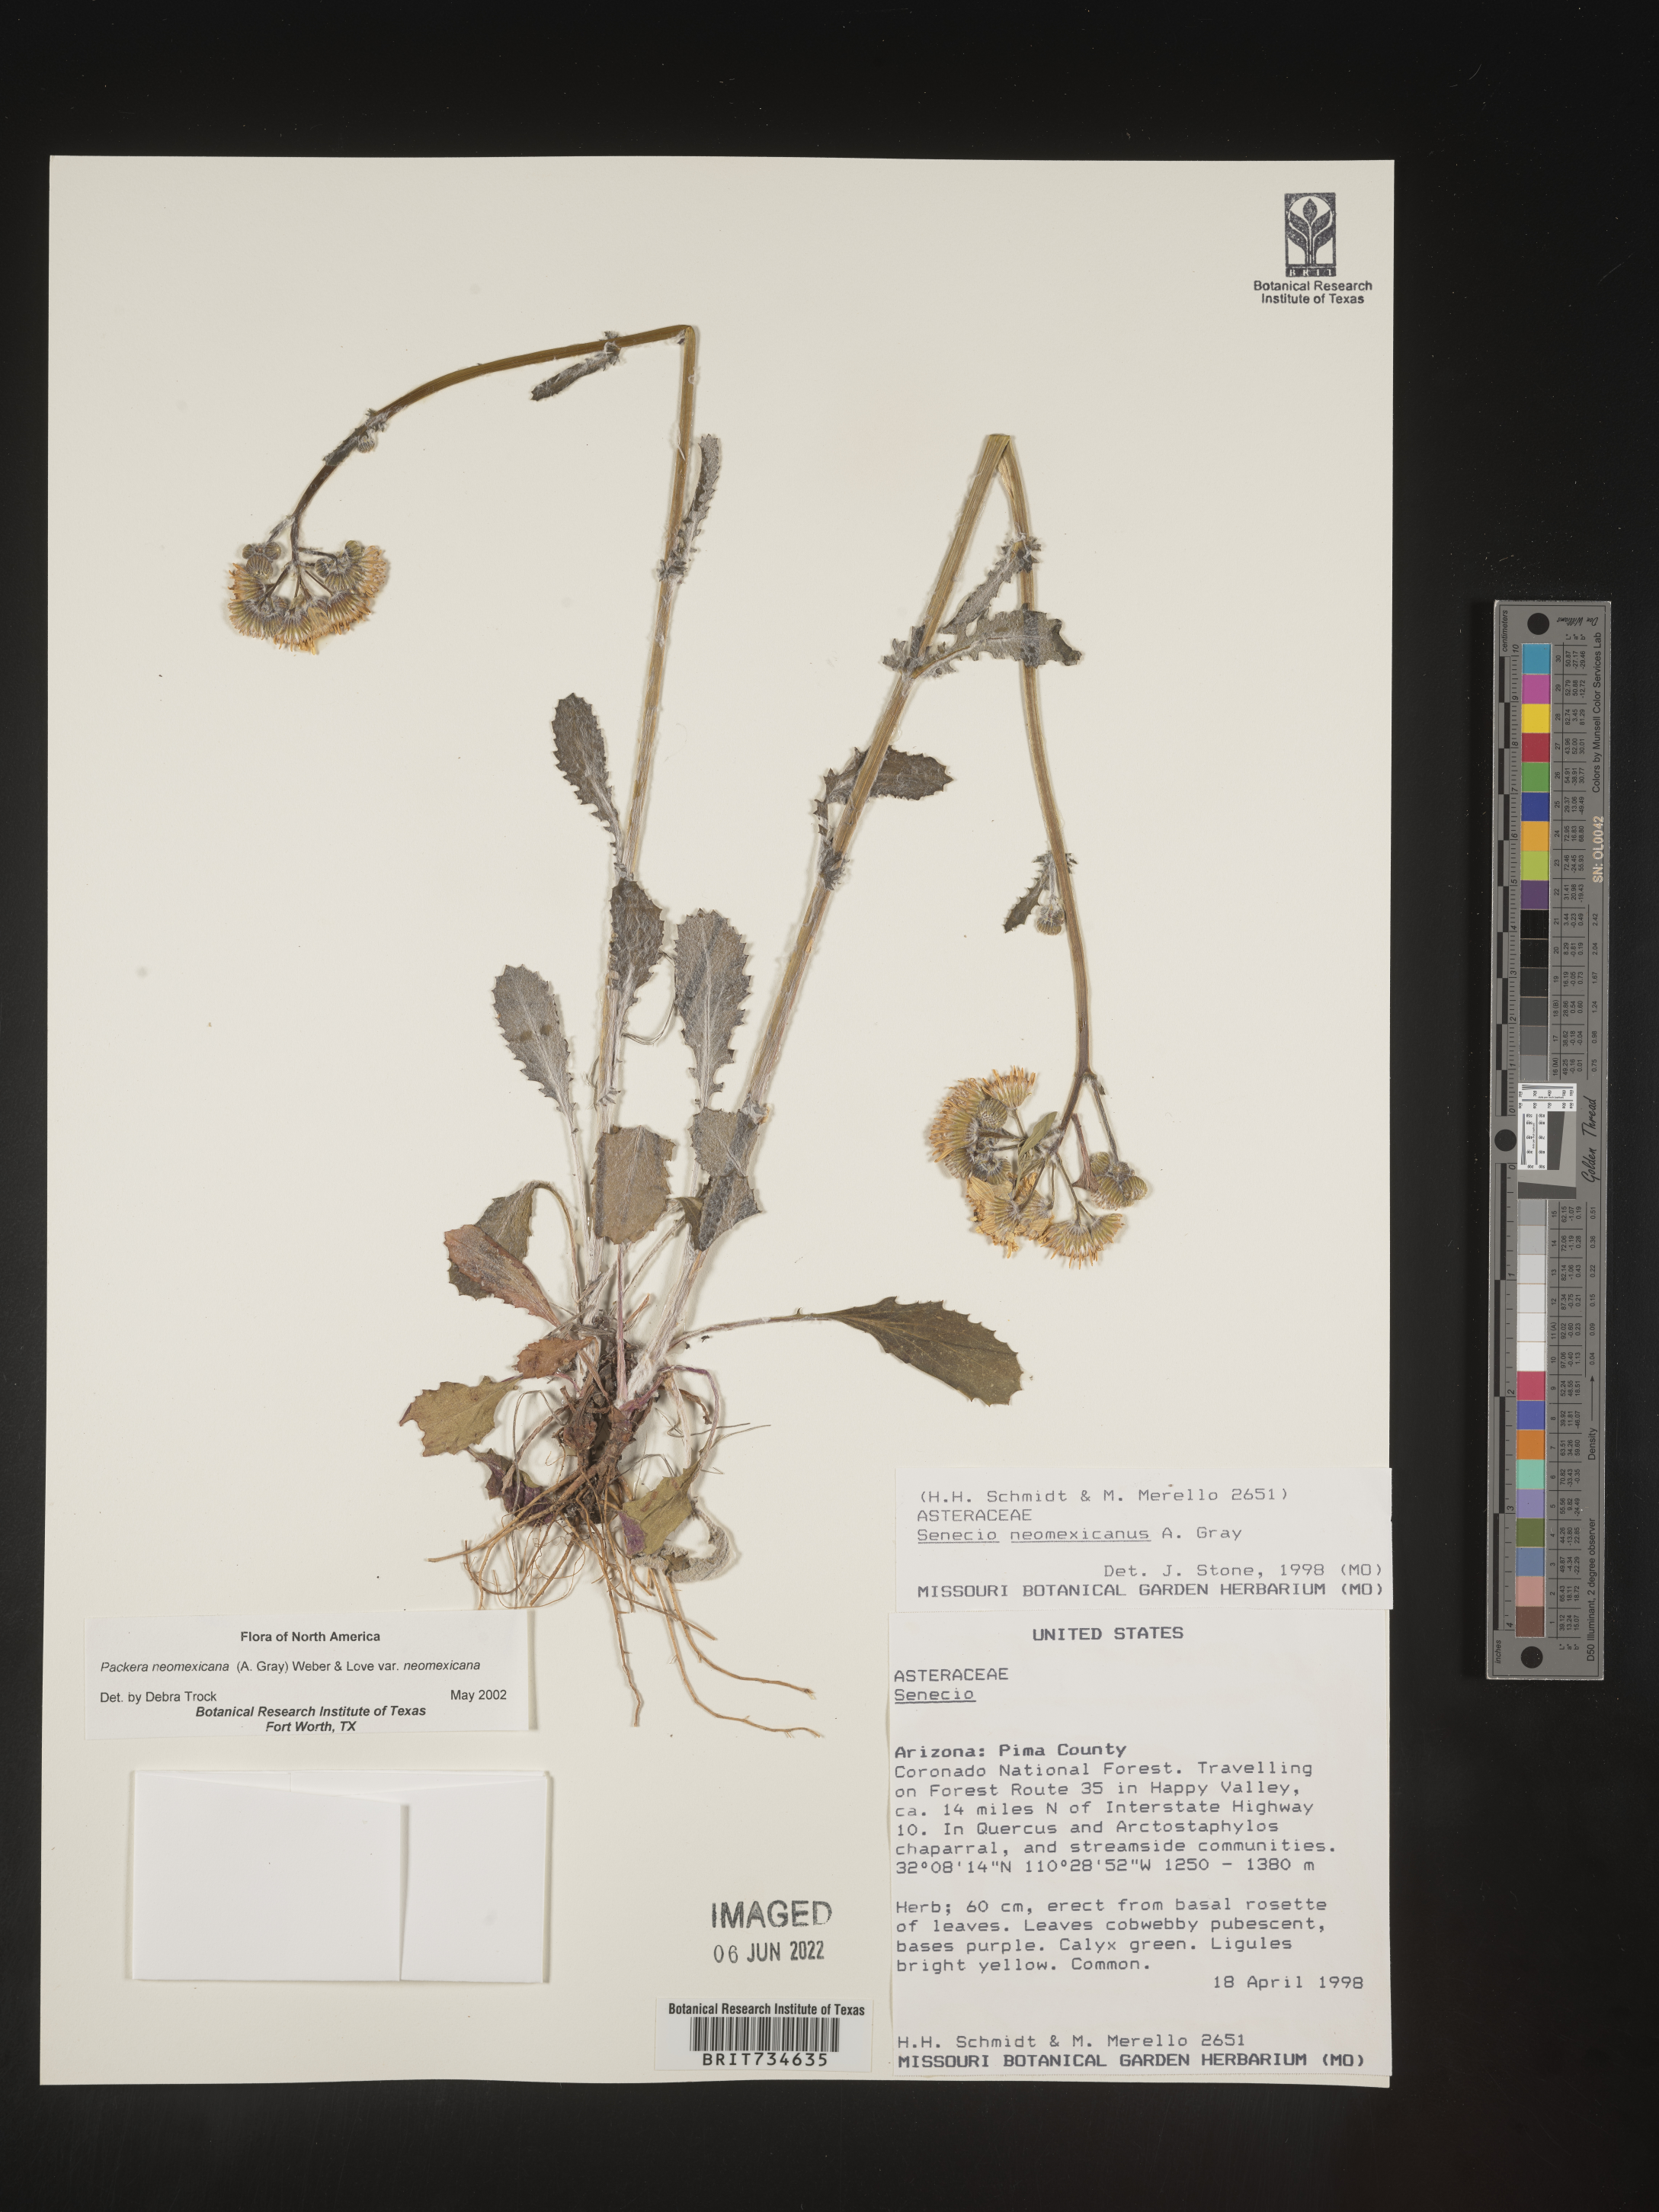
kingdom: Plantae
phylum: Tracheophyta
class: Magnoliopsida
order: Asterales
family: Asteraceae
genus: Packera
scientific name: Packera neomexicana
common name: New mexico butterweed
